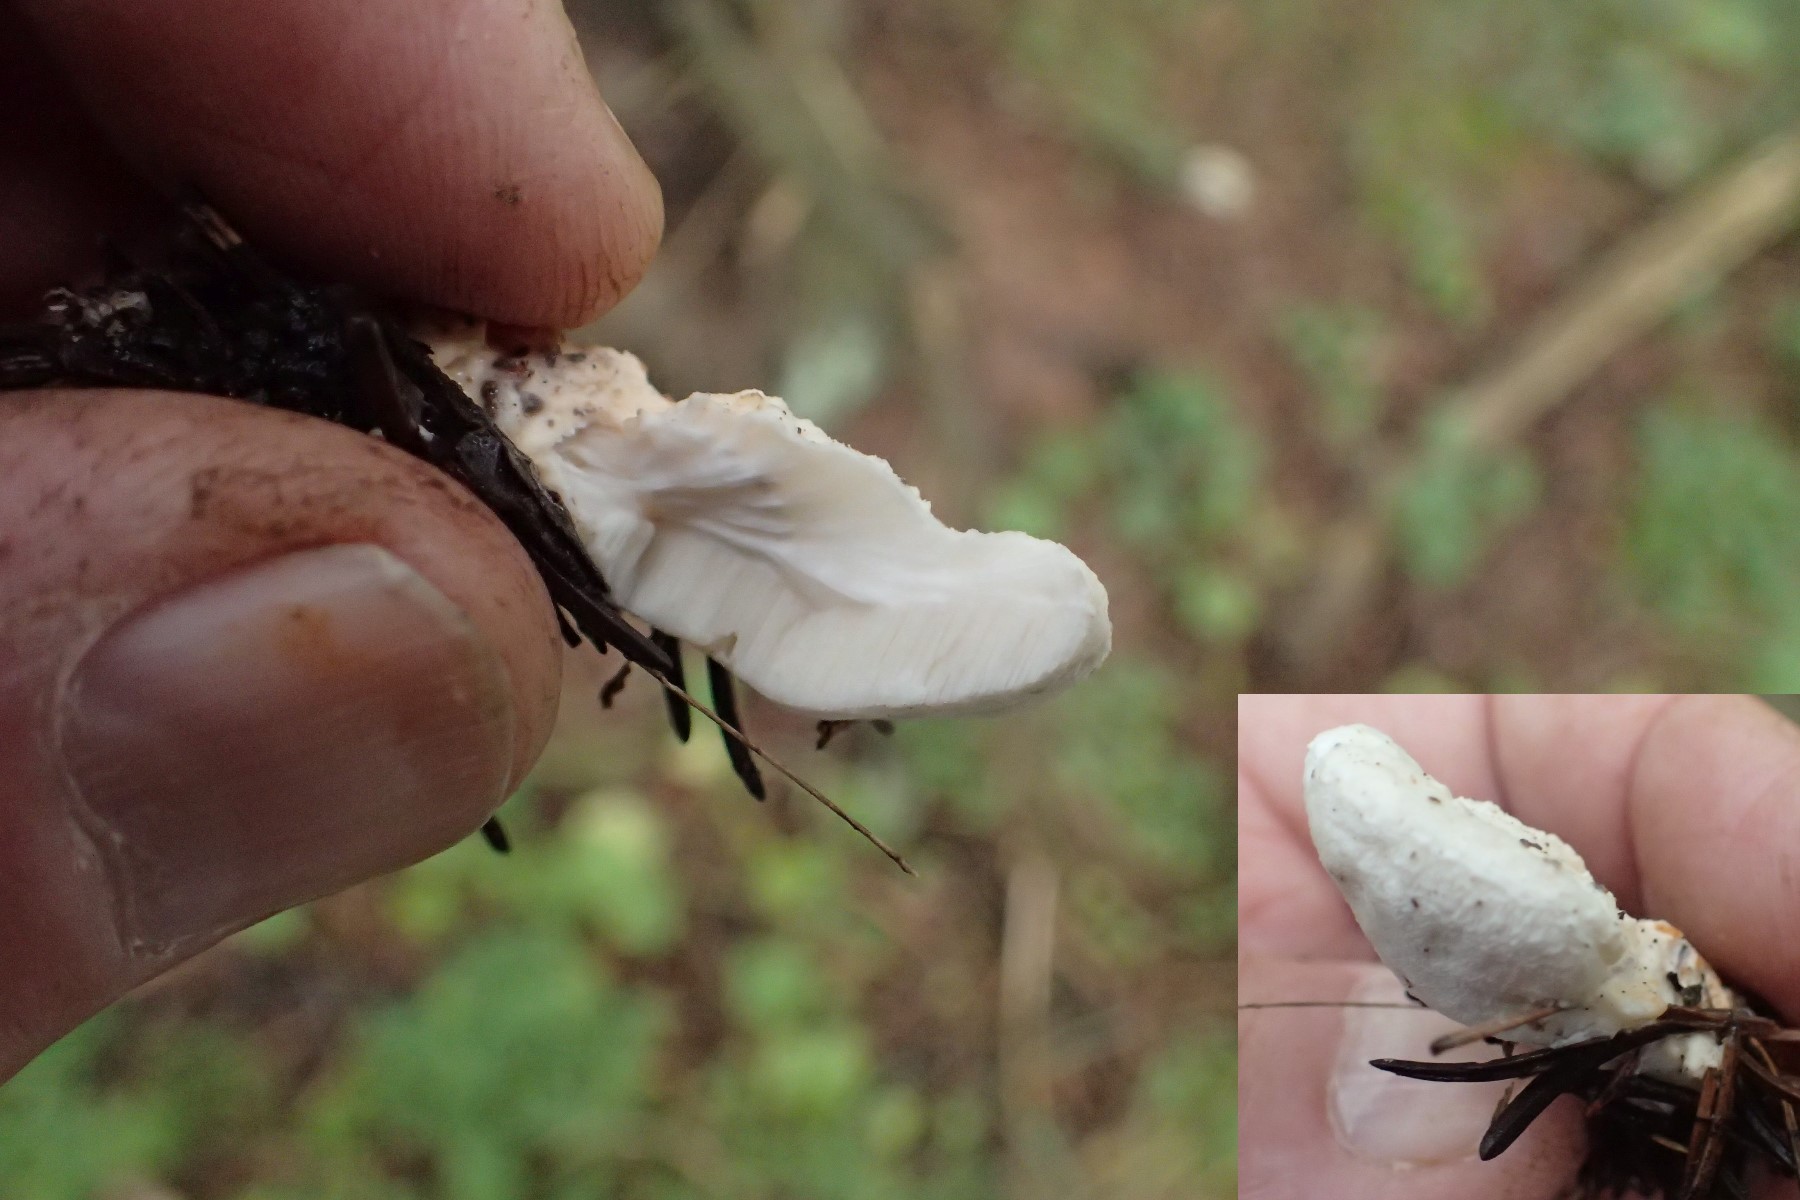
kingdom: Fungi
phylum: Basidiomycota
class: Agaricomycetes
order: Polyporales
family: Incrustoporiaceae
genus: Tyromyces
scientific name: Tyromyces lacteus
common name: mælkehvid kødporesvamp
